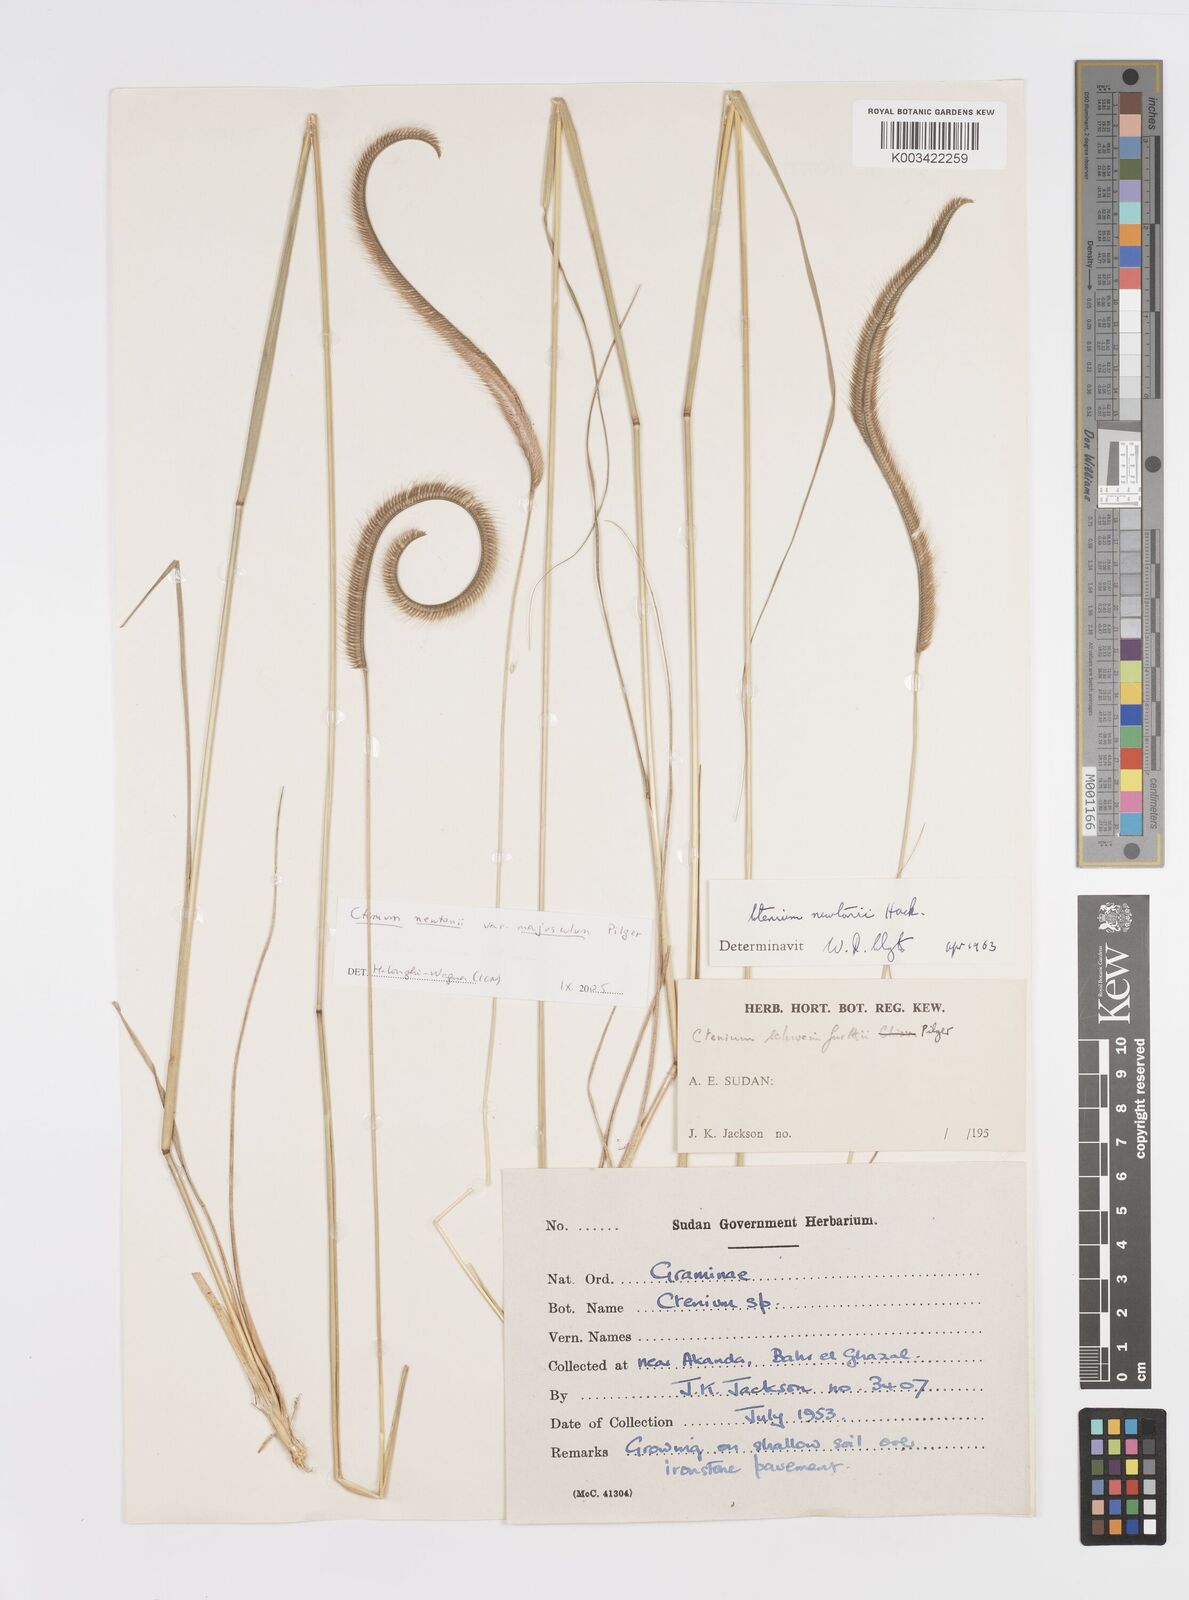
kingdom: Plantae
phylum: Tracheophyta
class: Liliopsida
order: Poales
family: Poaceae
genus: Ctenium
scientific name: Ctenium newtonii
